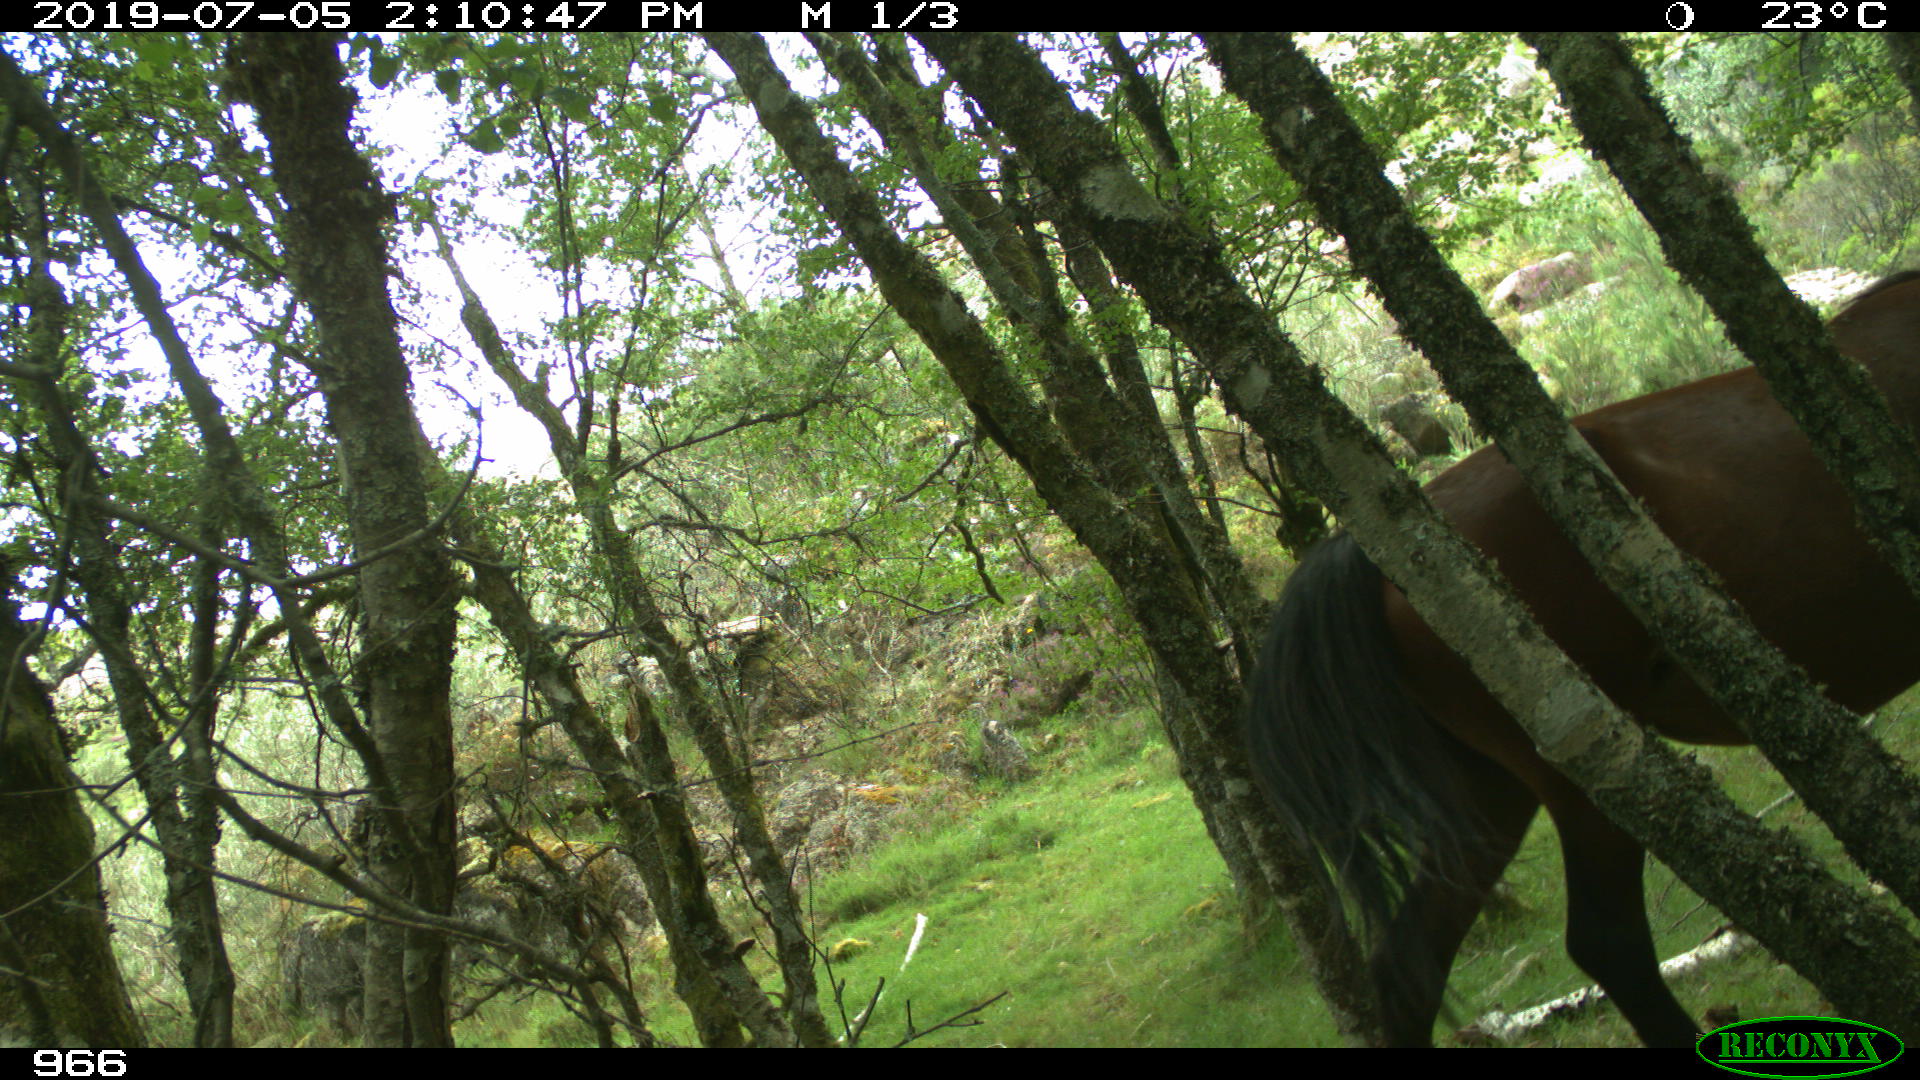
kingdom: Animalia
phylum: Chordata
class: Mammalia
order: Perissodactyla
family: Equidae
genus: Equus
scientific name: Equus caballus
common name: Horse
